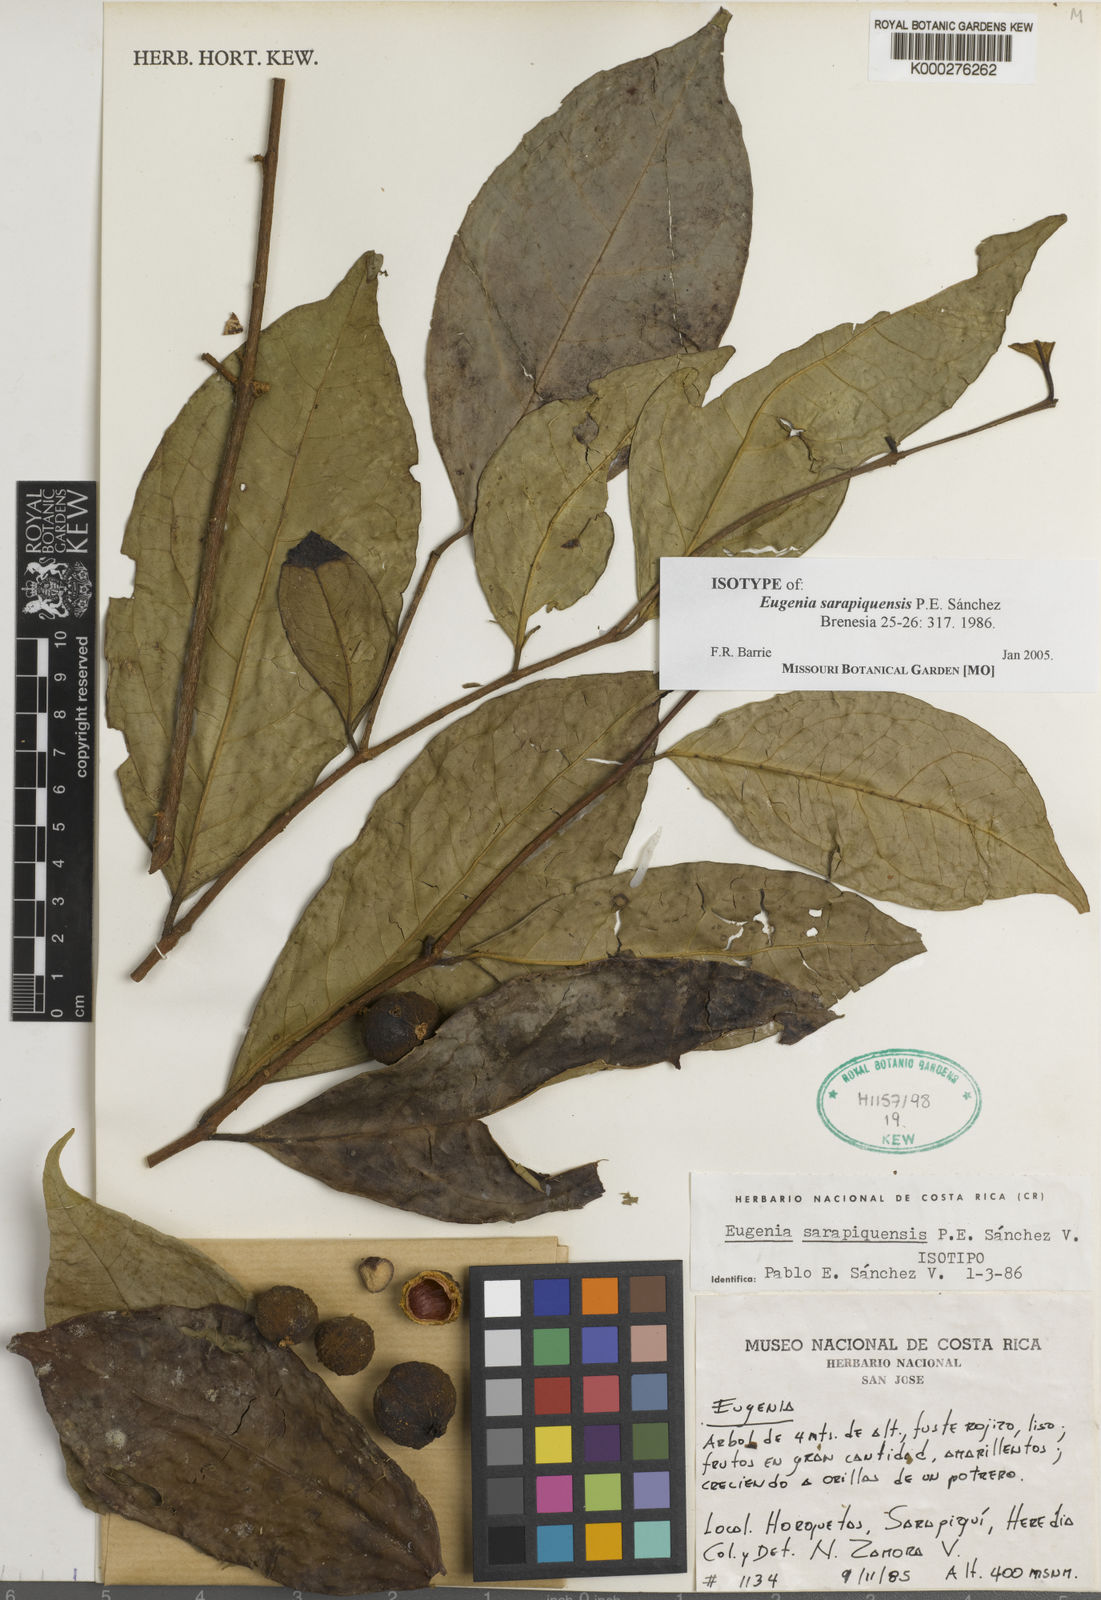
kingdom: Plantae
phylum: Tracheophyta
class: Magnoliopsida
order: Myrtales
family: Myrtaceae
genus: Eugenia
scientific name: Eugenia
